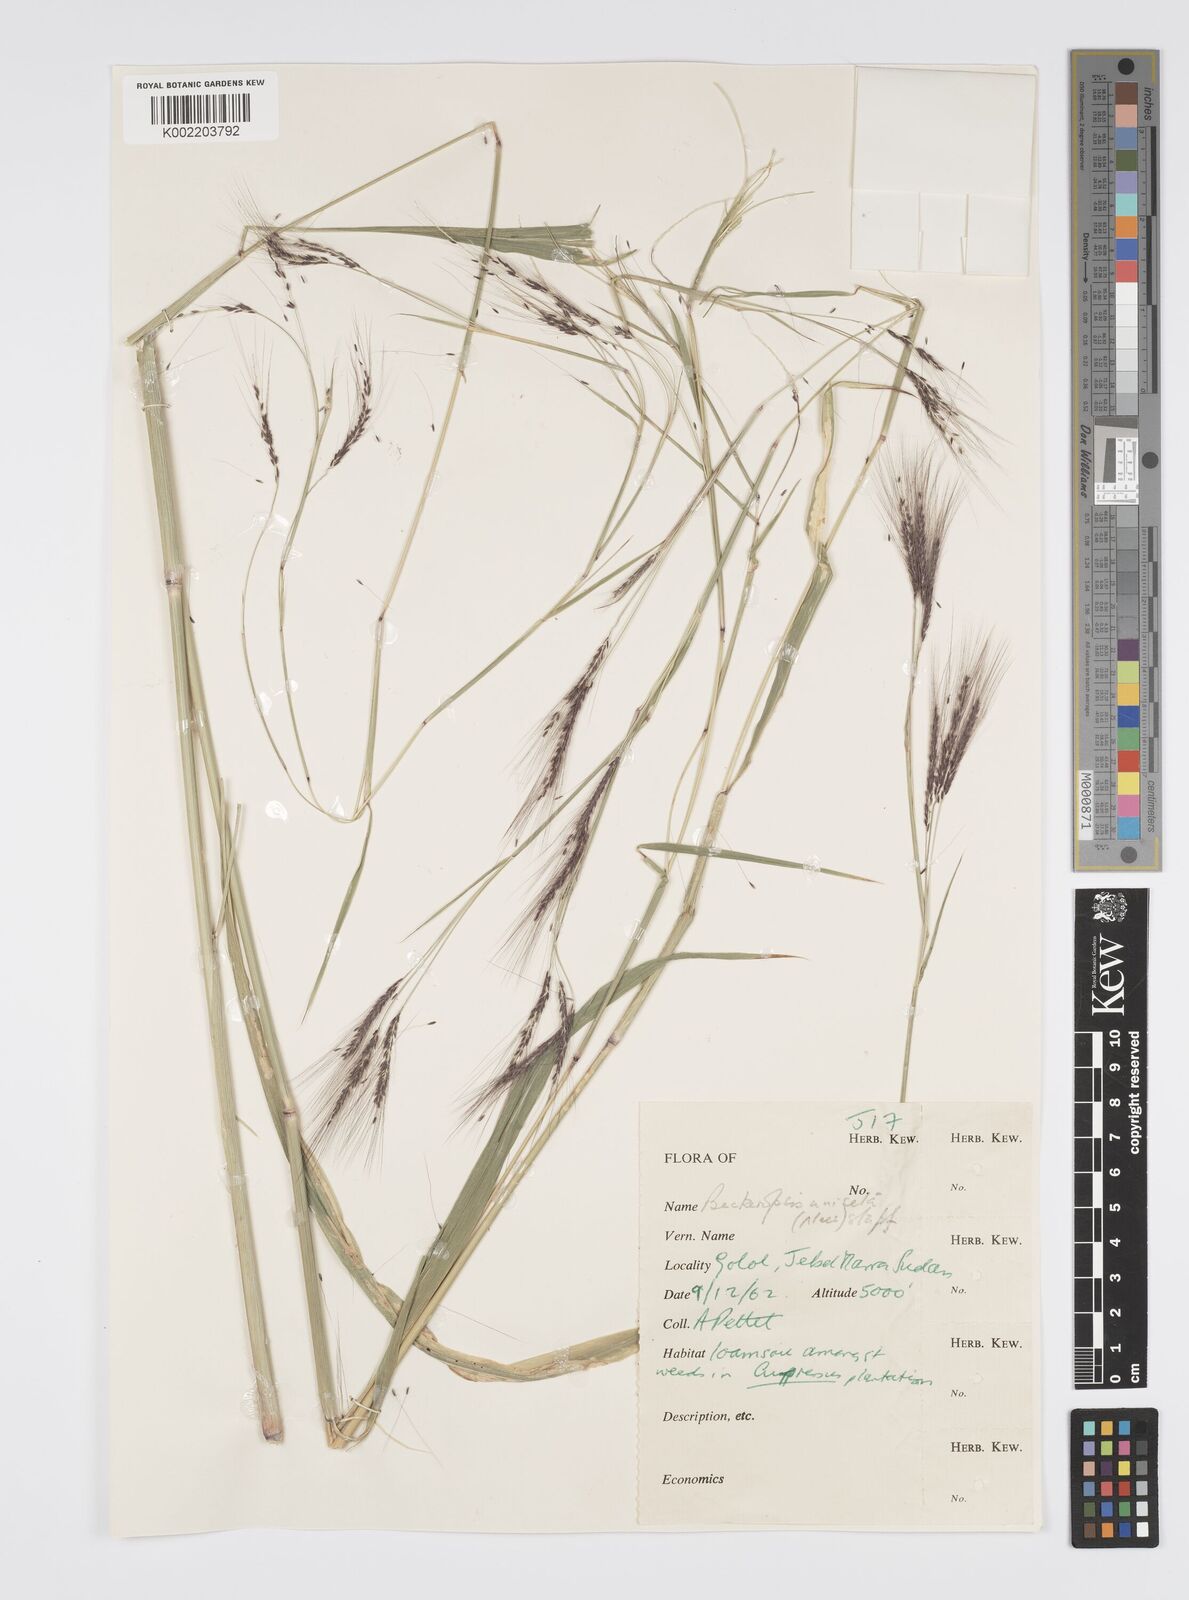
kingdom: Plantae
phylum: Tracheophyta
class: Liliopsida
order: Poales
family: Poaceae
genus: Cenchrus
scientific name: Cenchrus unisetus
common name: Natal grass
